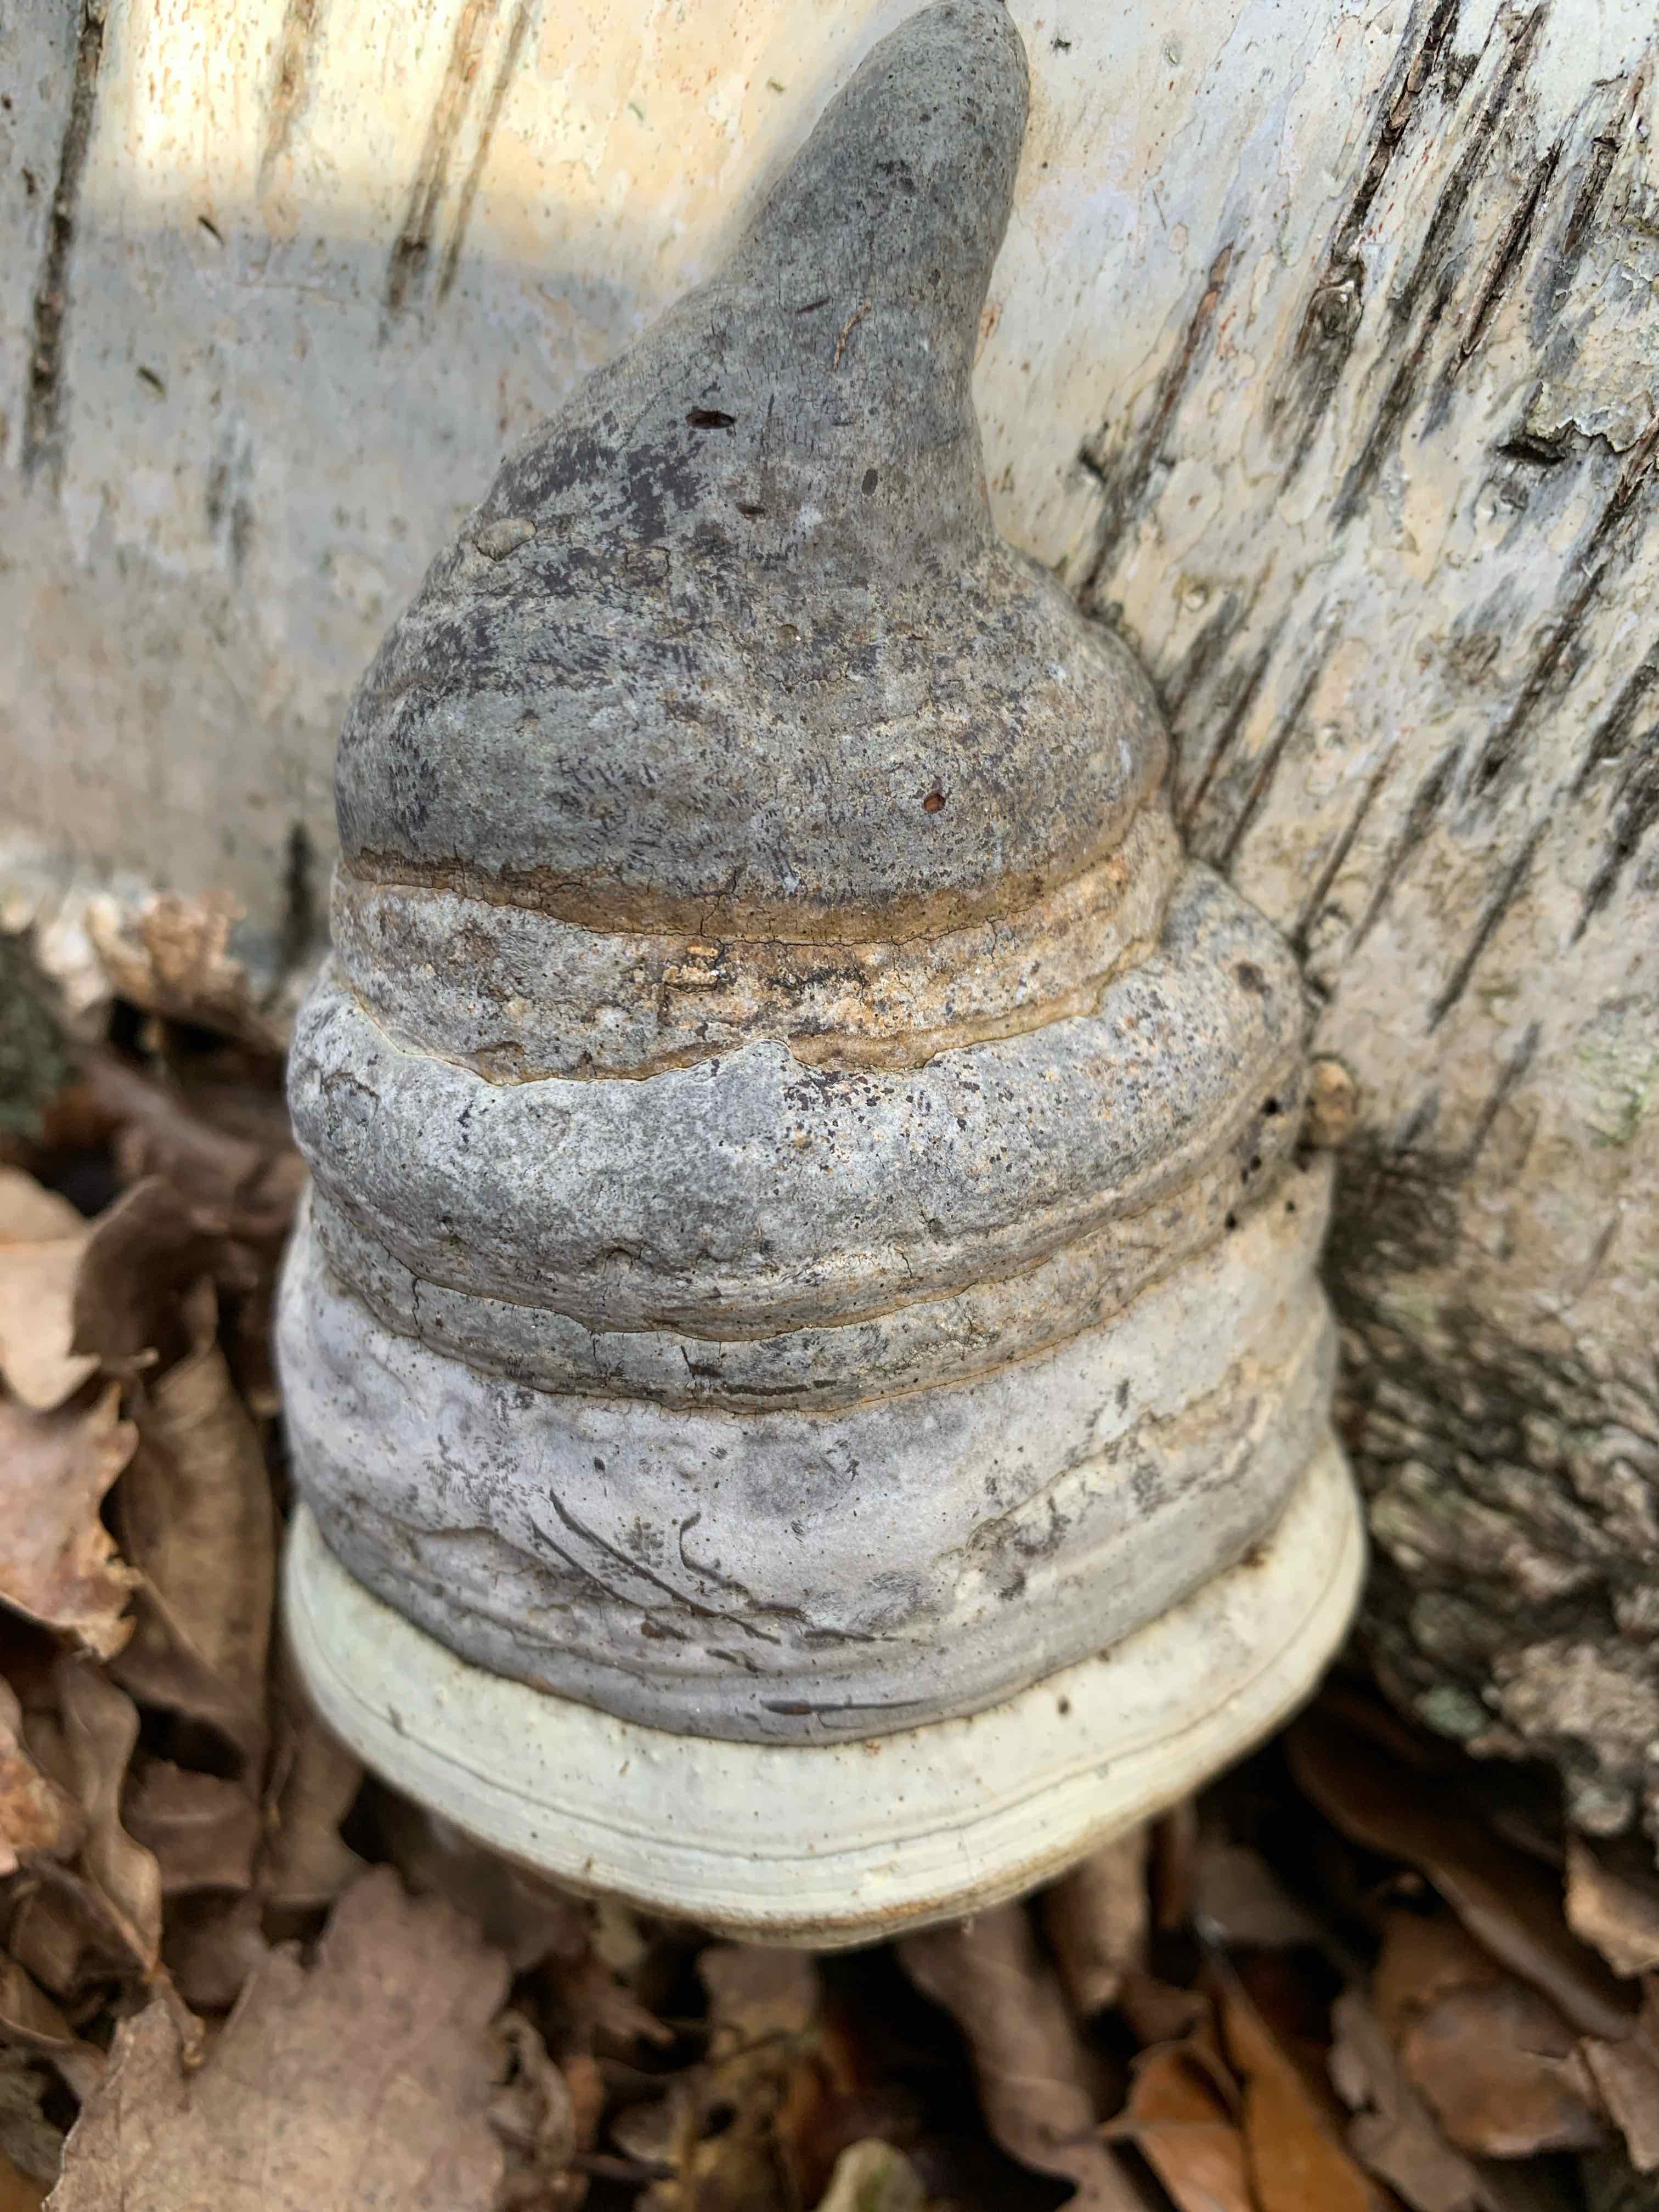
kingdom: Fungi
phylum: Basidiomycota
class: Agaricomycetes
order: Polyporales
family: Polyporaceae
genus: Fomes
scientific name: Fomes fomentarius
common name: tøndersvamp
